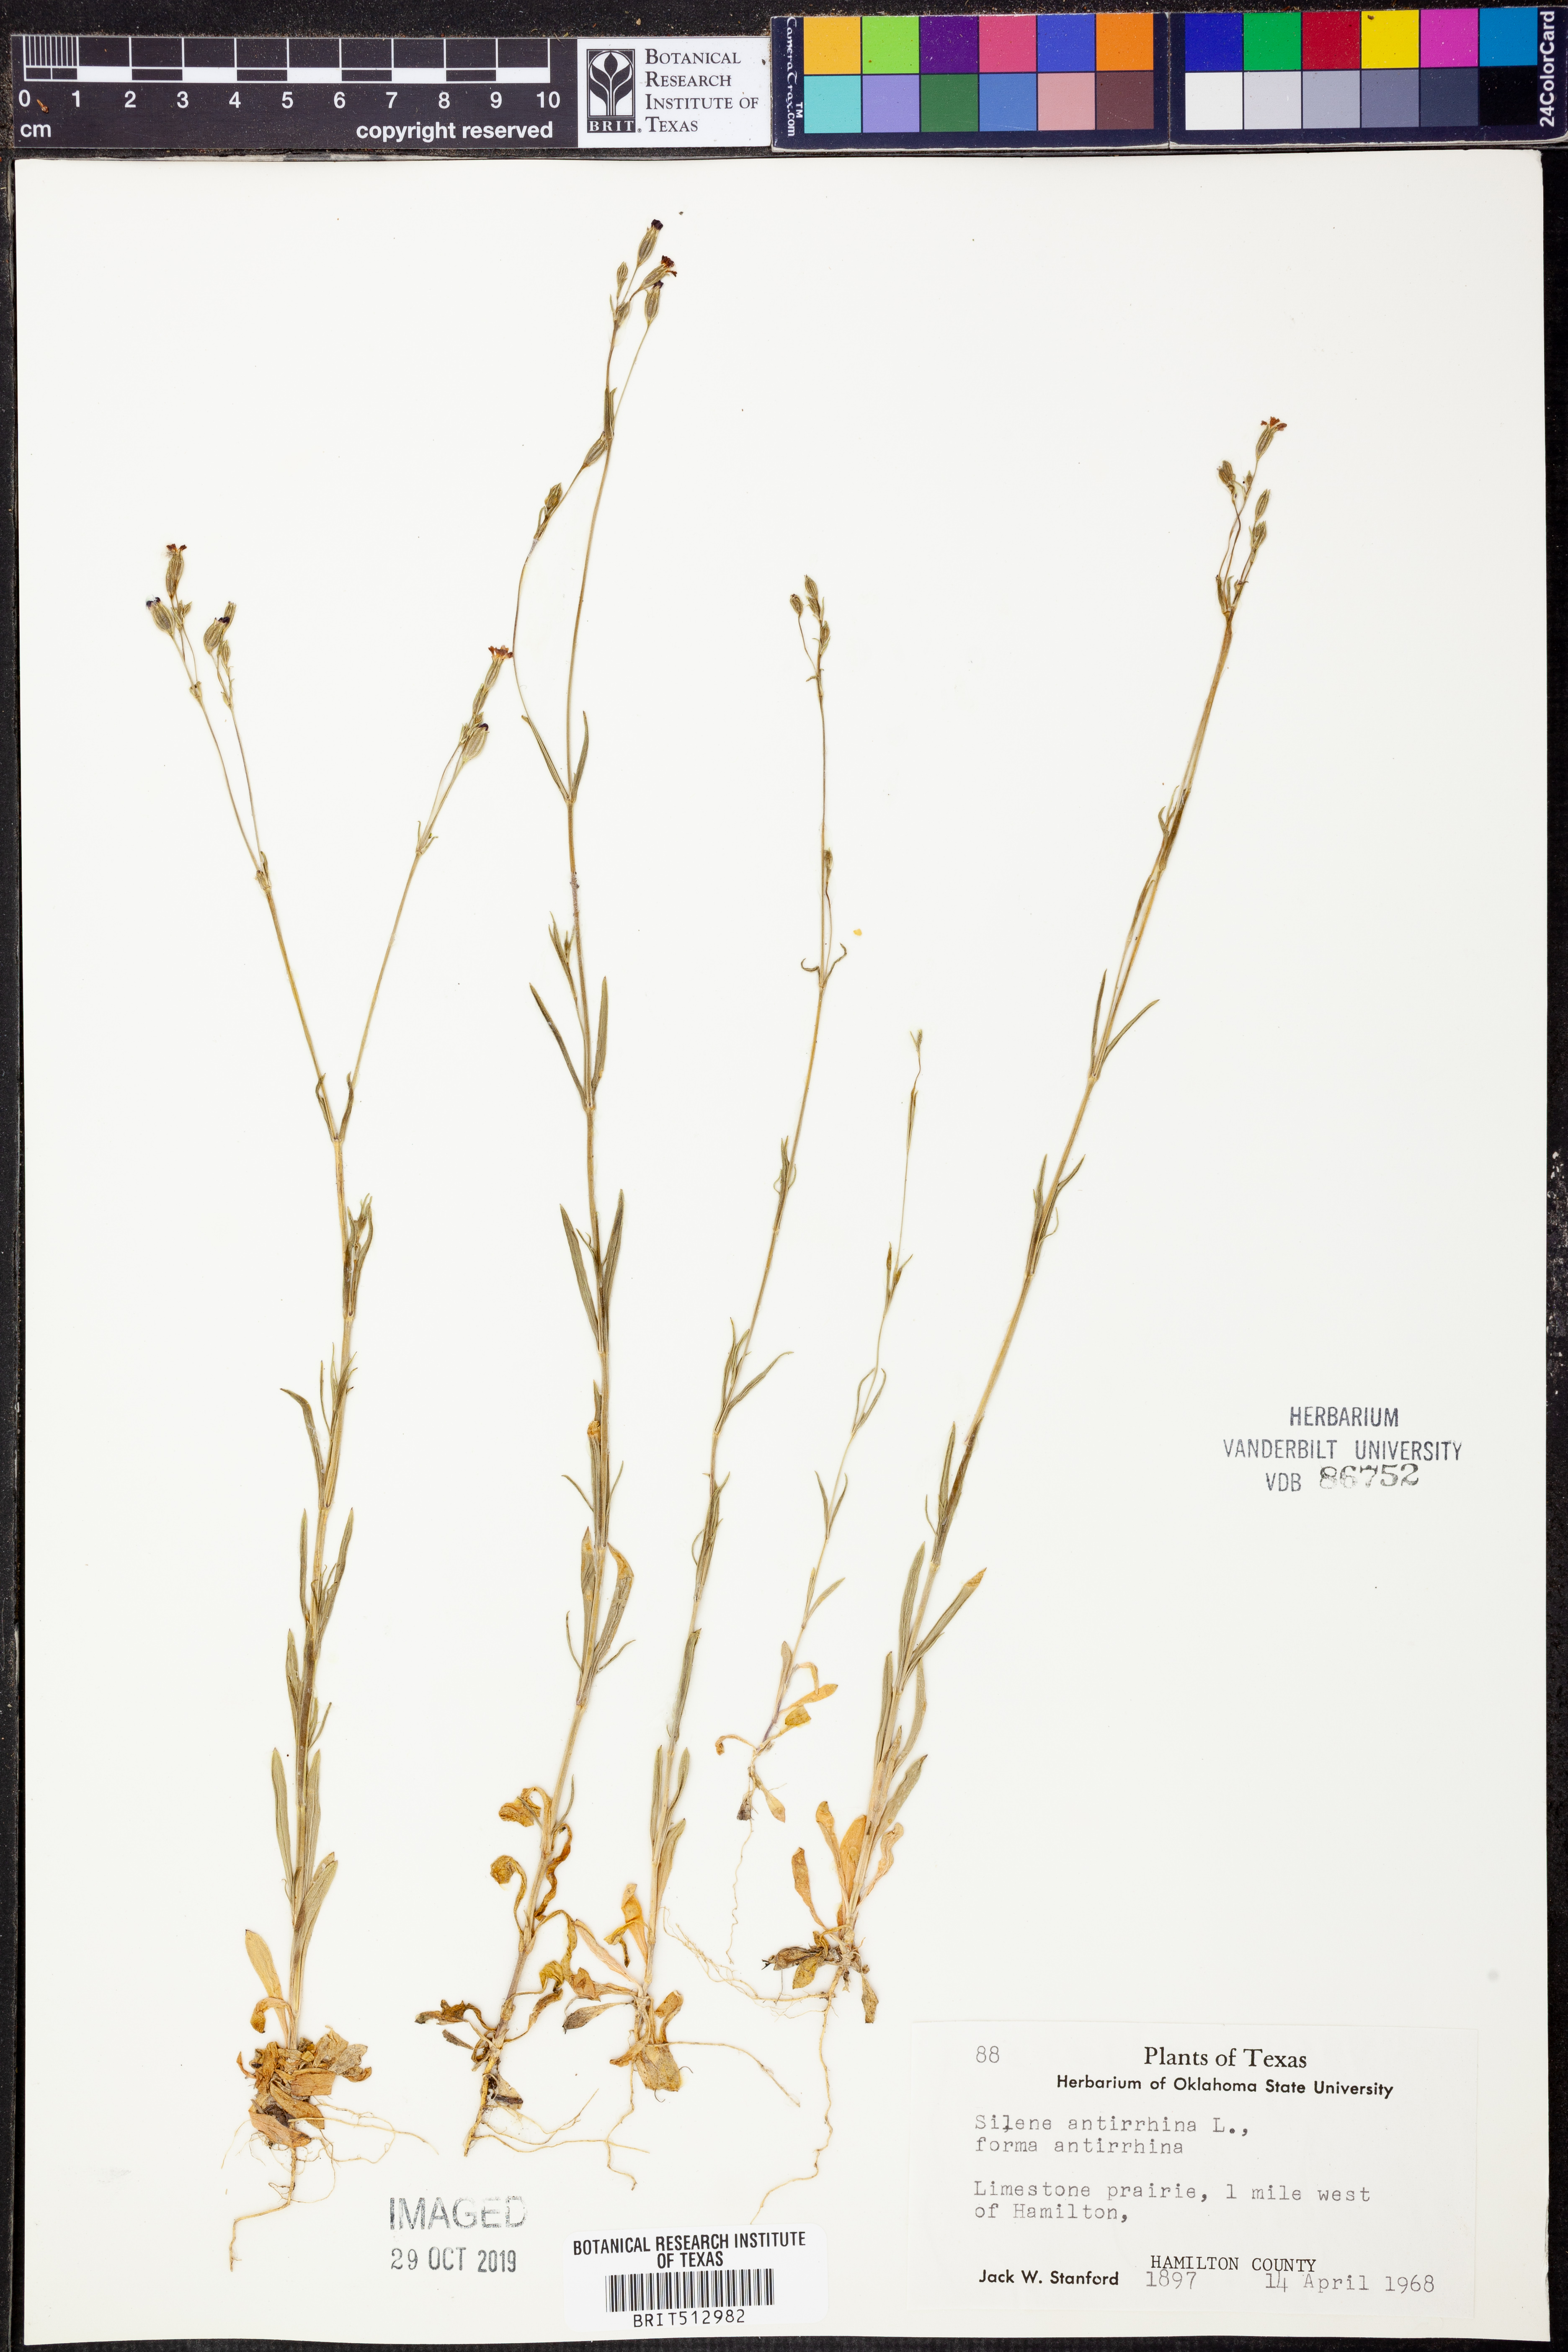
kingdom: Plantae
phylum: Tracheophyta
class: Magnoliopsida
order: Caryophyllales
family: Caryophyllaceae
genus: Silene
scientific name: Silene antirrhina
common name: Sleepy catchfly
